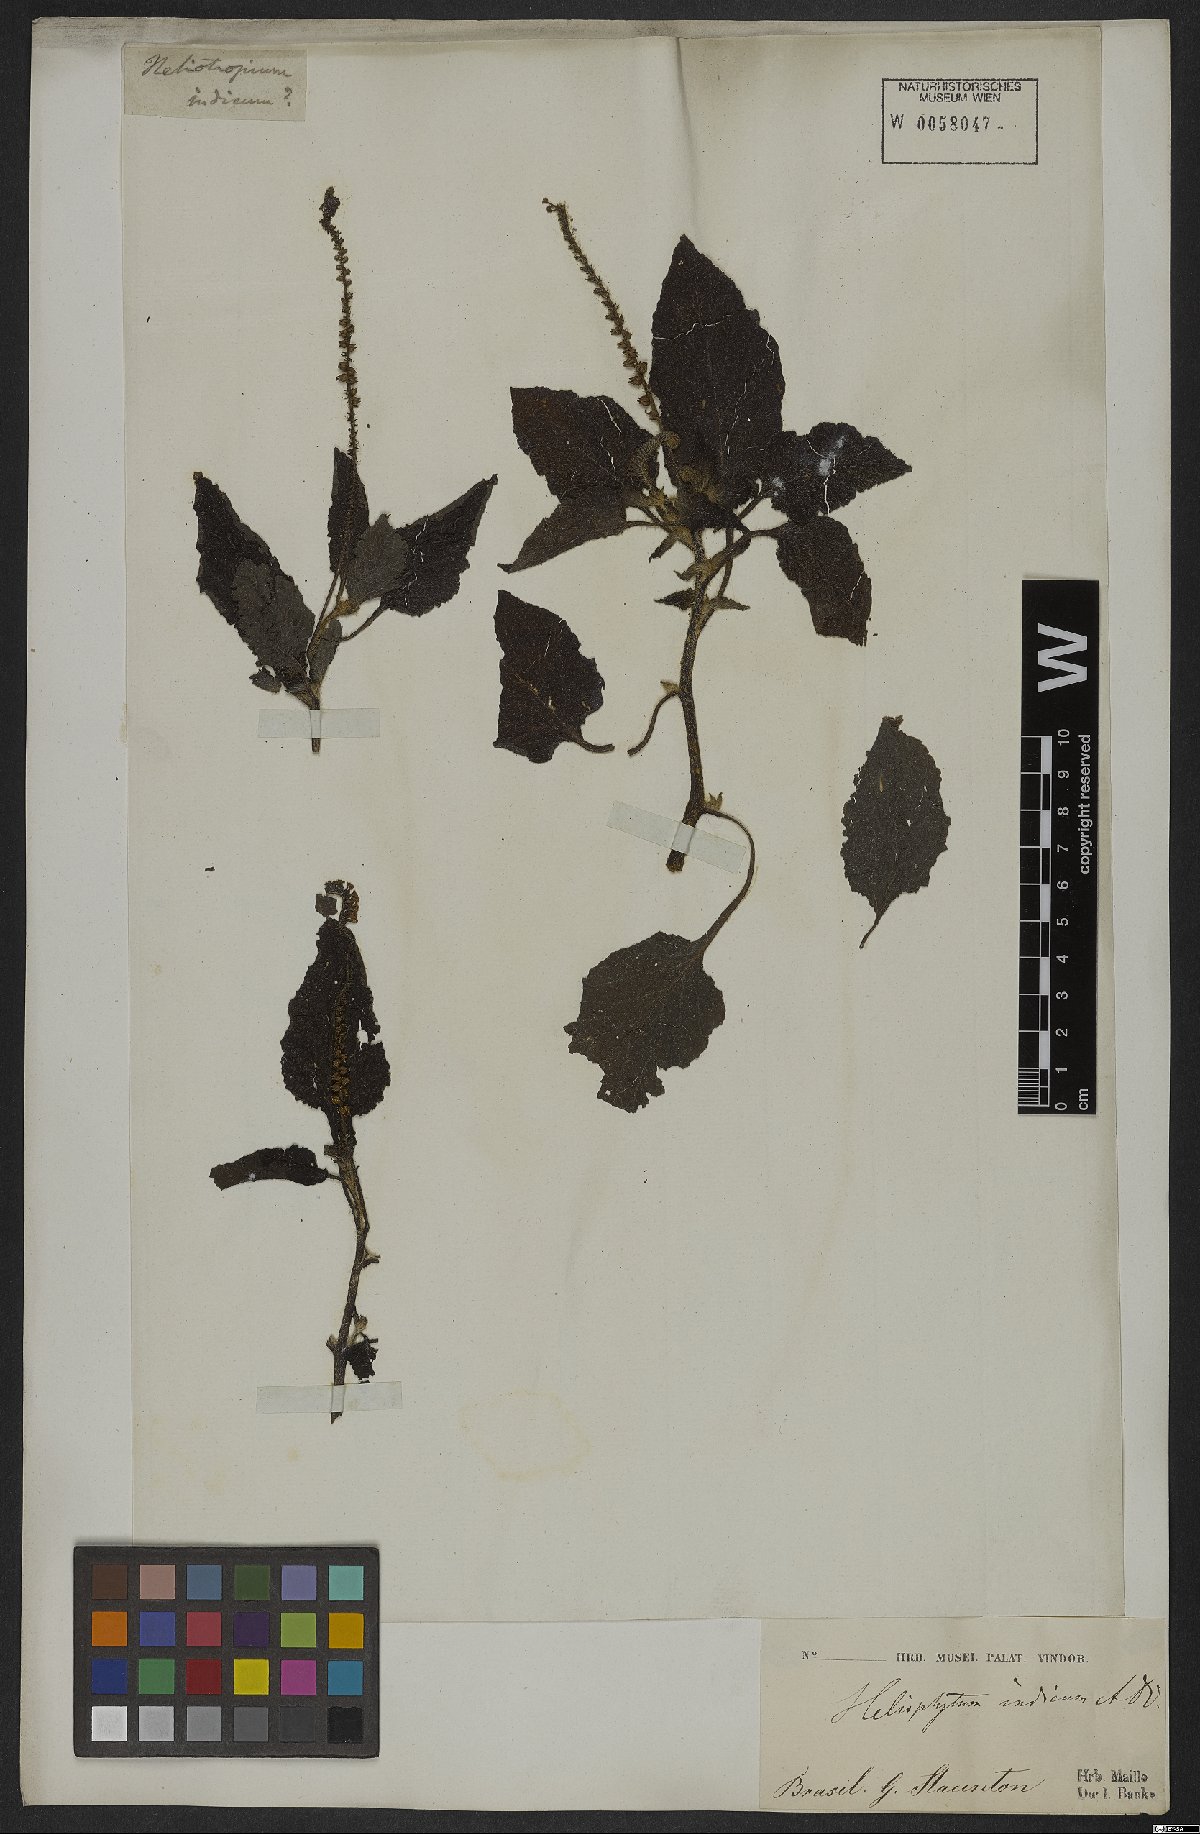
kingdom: Plantae
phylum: Tracheophyta
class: Magnoliopsida
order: Boraginales
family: Heliotropiaceae
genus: Heliotropium
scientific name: Heliotropium indicum
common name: Indian heliotrope
